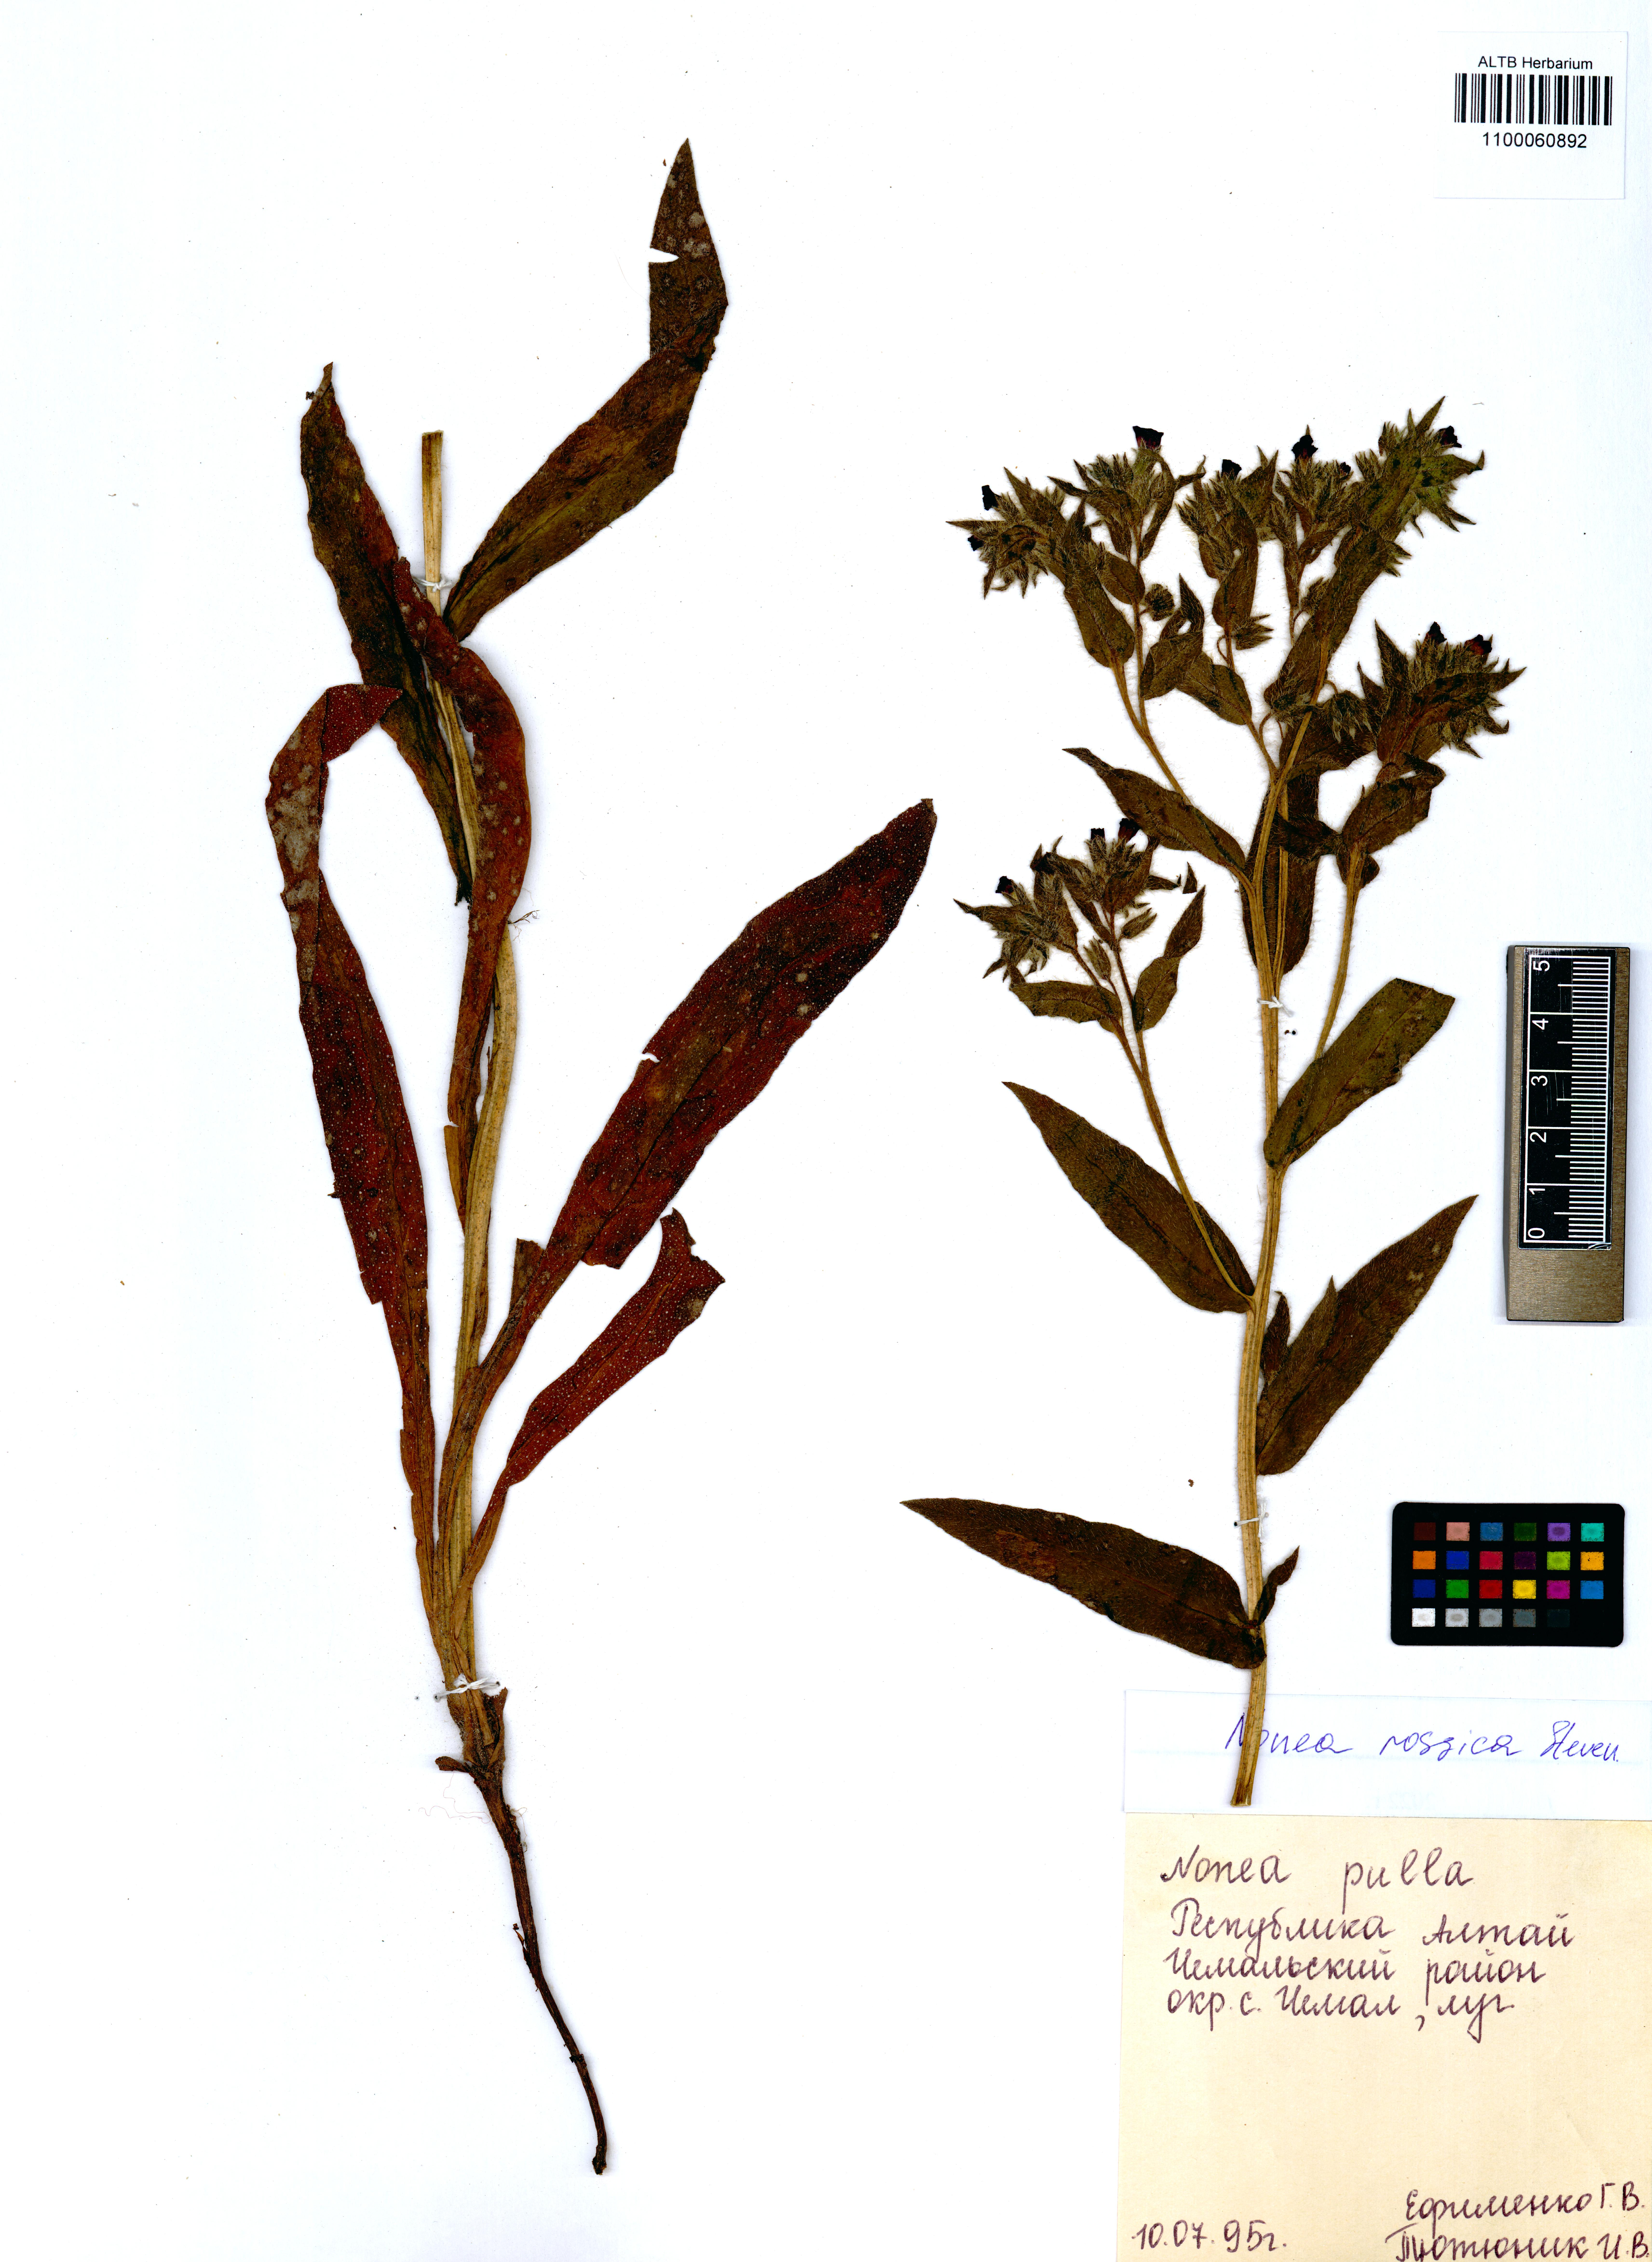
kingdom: Plantae
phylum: Tracheophyta
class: Magnoliopsida
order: Boraginales
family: Boraginaceae
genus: Nonea
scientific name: Nonea pulla
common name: Brown nonea
